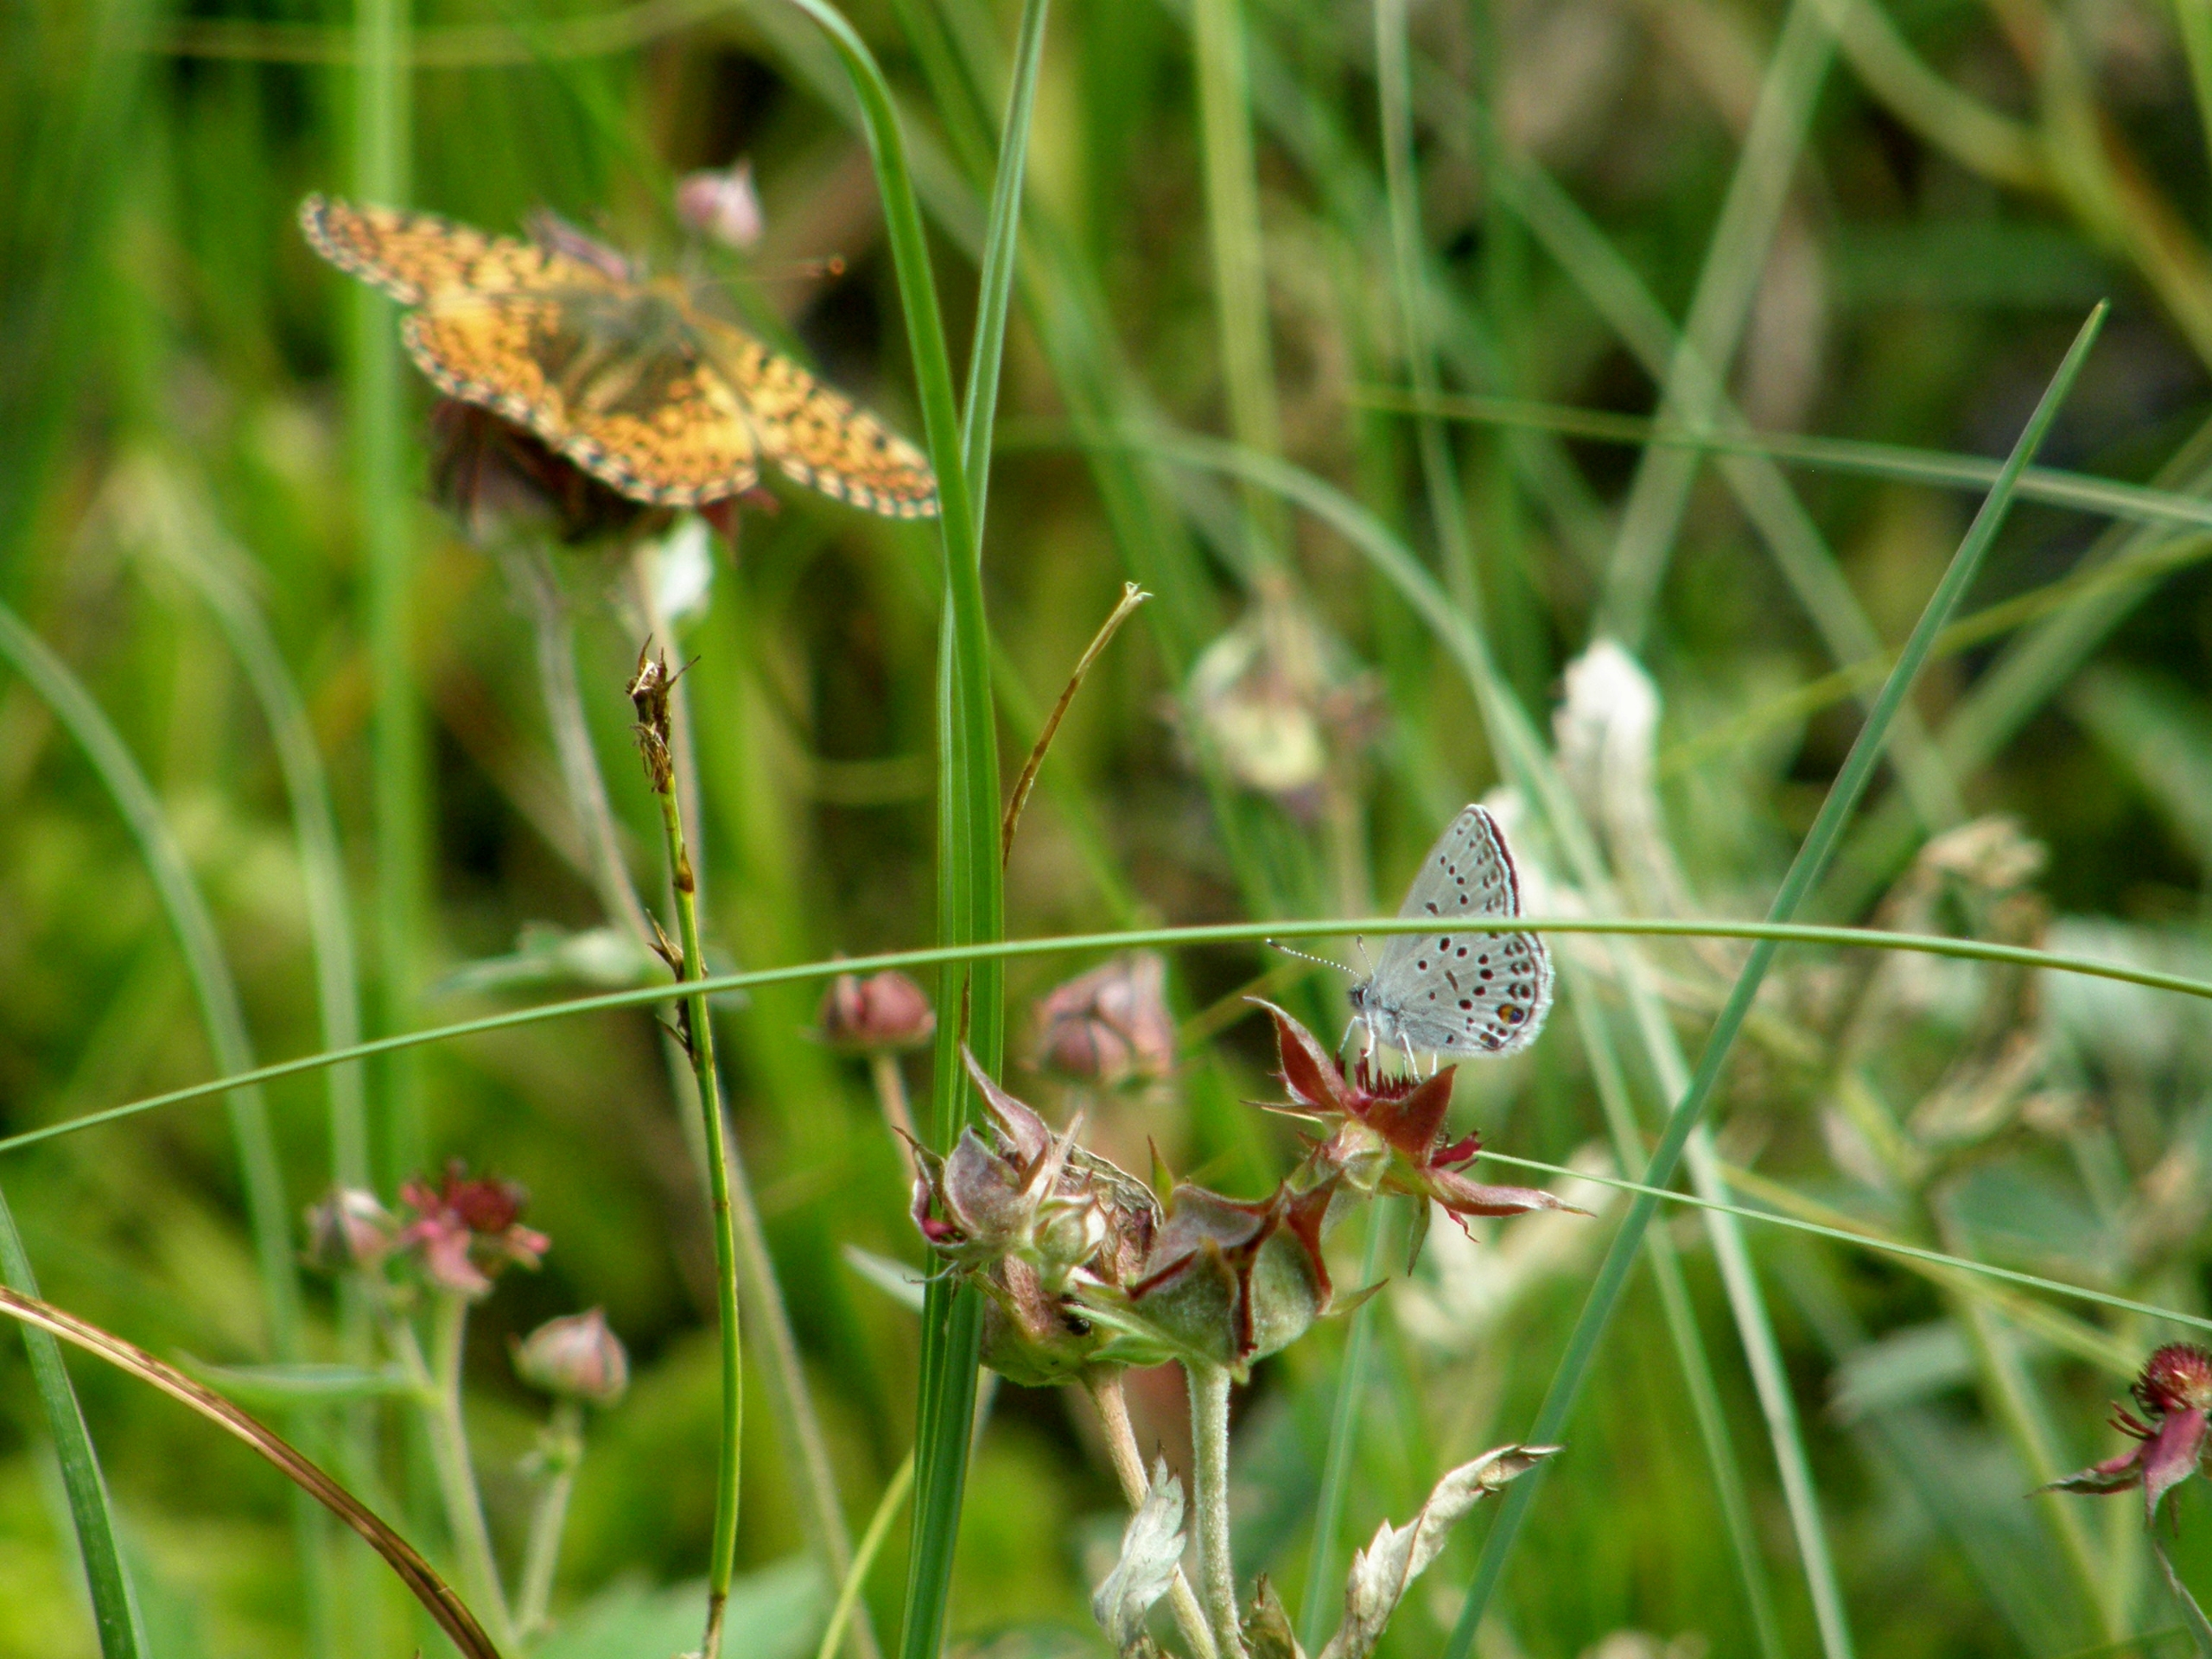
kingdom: Animalia
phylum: Arthropoda
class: Insecta
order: Lepidoptera
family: Lycaenidae
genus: Vacciniina
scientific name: Vacciniina optilete
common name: Bølleblåfugl
